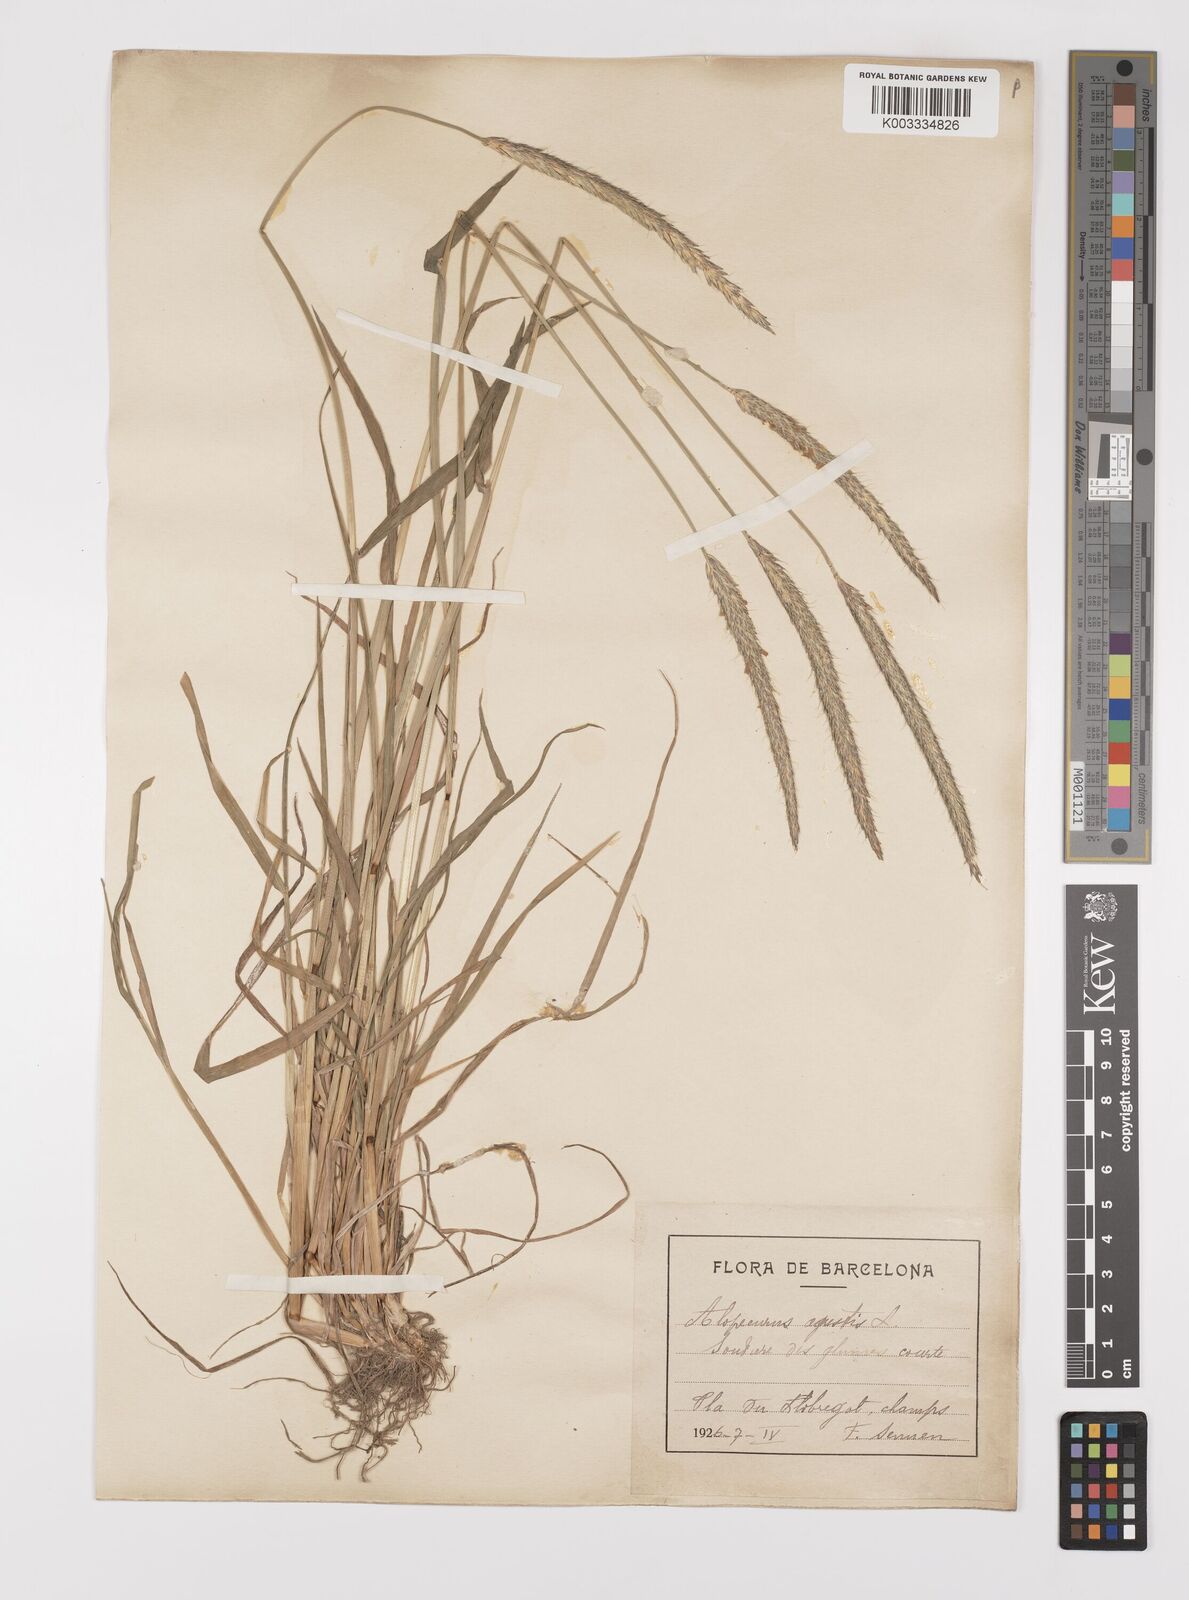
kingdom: Plantae
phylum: Tracheophyta
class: Liliopsida
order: Poales
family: Poaceae
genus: Alopecurus
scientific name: Alopecurus myosuroides
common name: Black-grass
